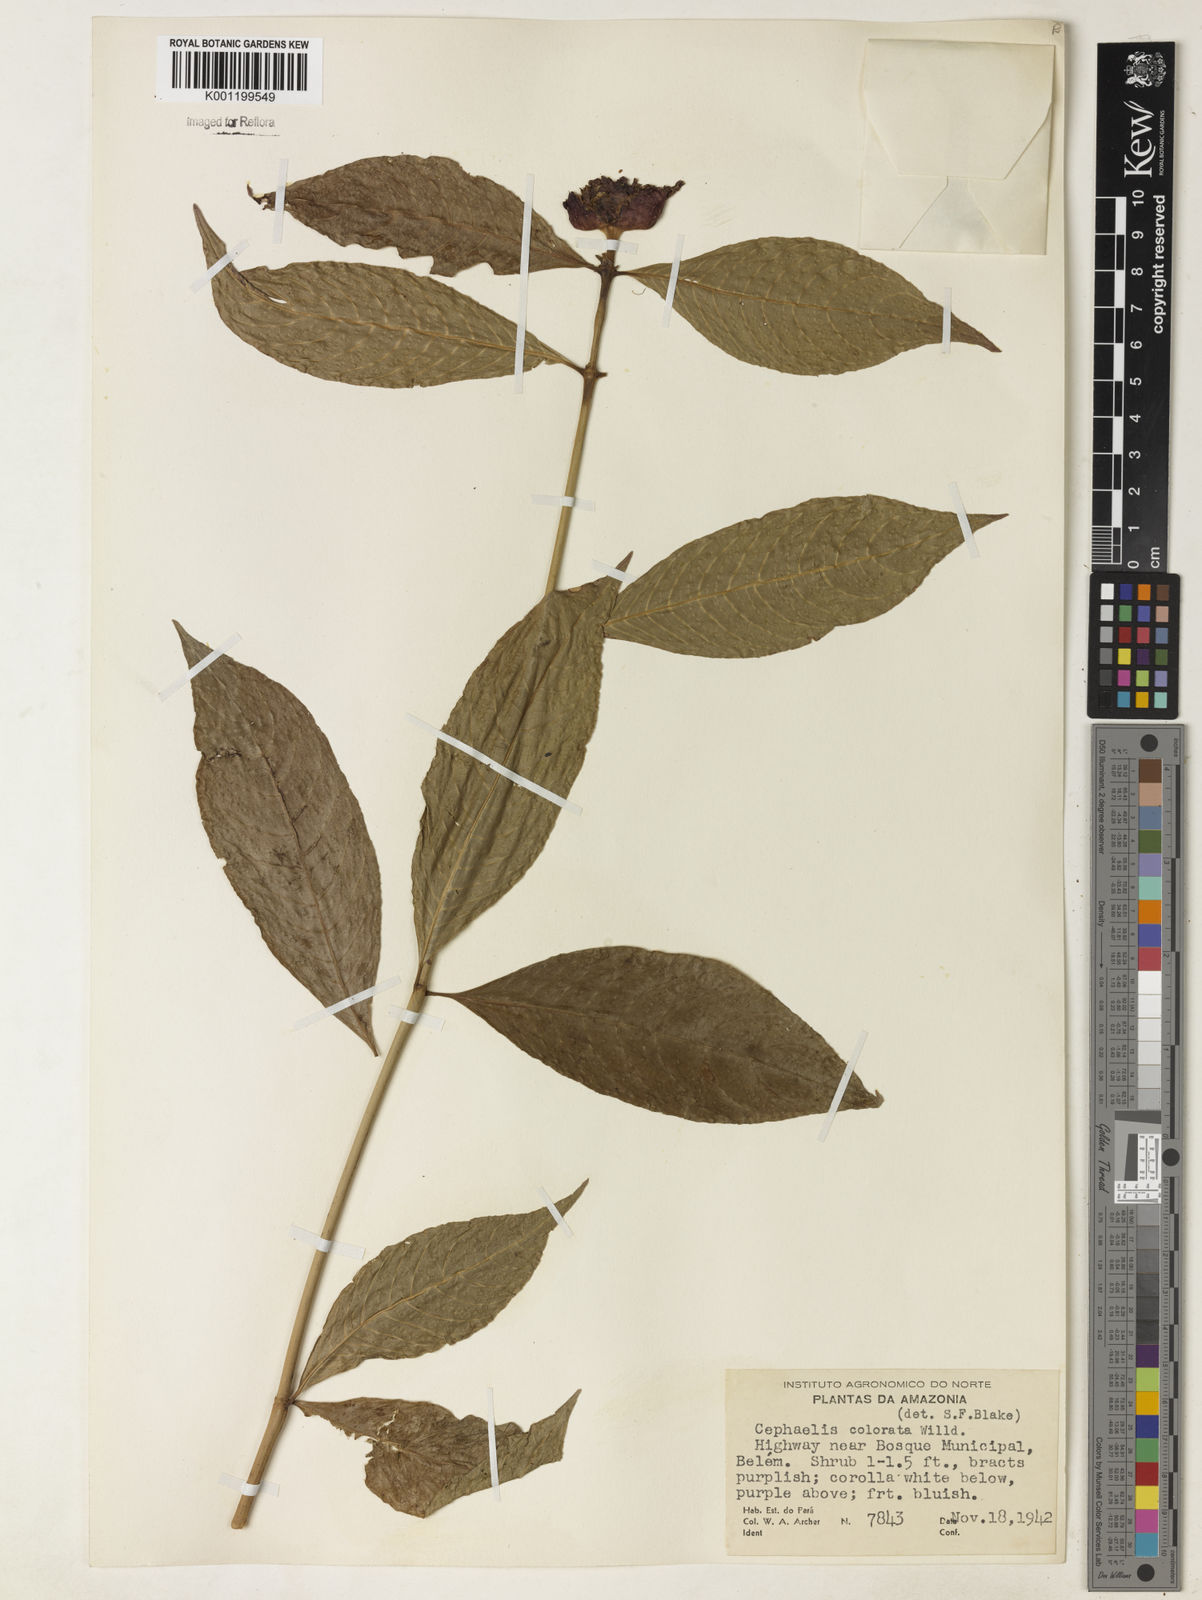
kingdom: Plantae
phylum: Tracheophyta
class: Magnoliopsida
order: Gentianales
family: Rubiaceae
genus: Psychotria
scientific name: Psychotria
